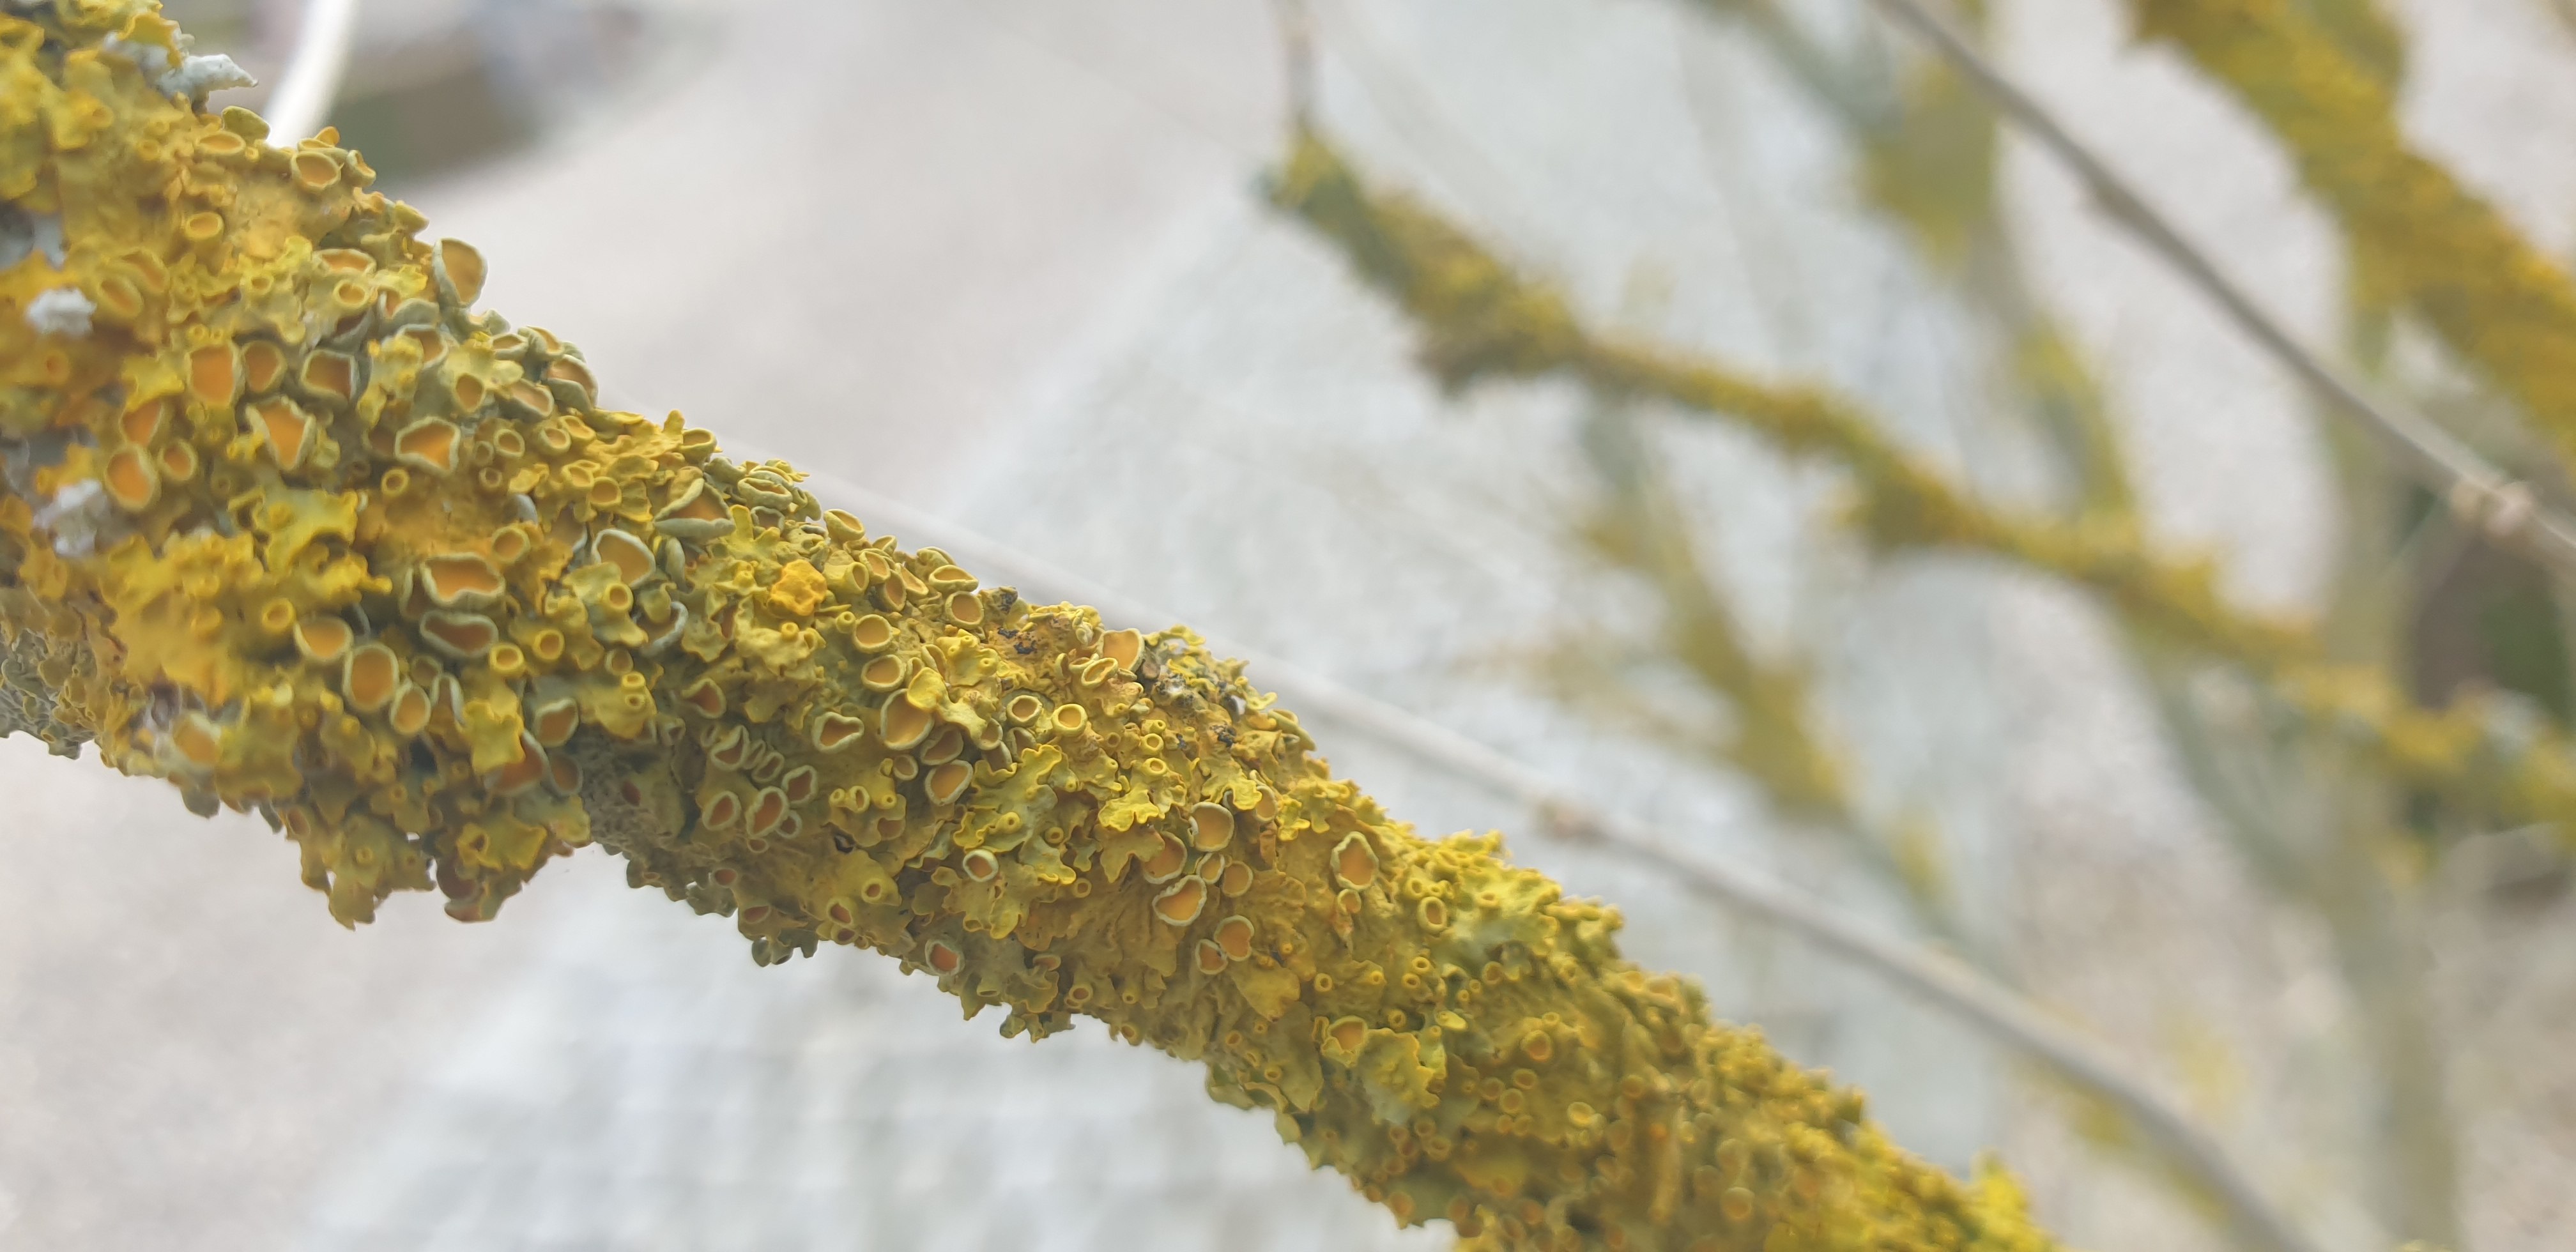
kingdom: Fungi
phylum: Ascomycota
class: Lecanoromycetes
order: Teloschistales
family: Teloschistaceae
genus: Xanthoria
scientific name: Xanthoria parietina
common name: almindelig væggelav
